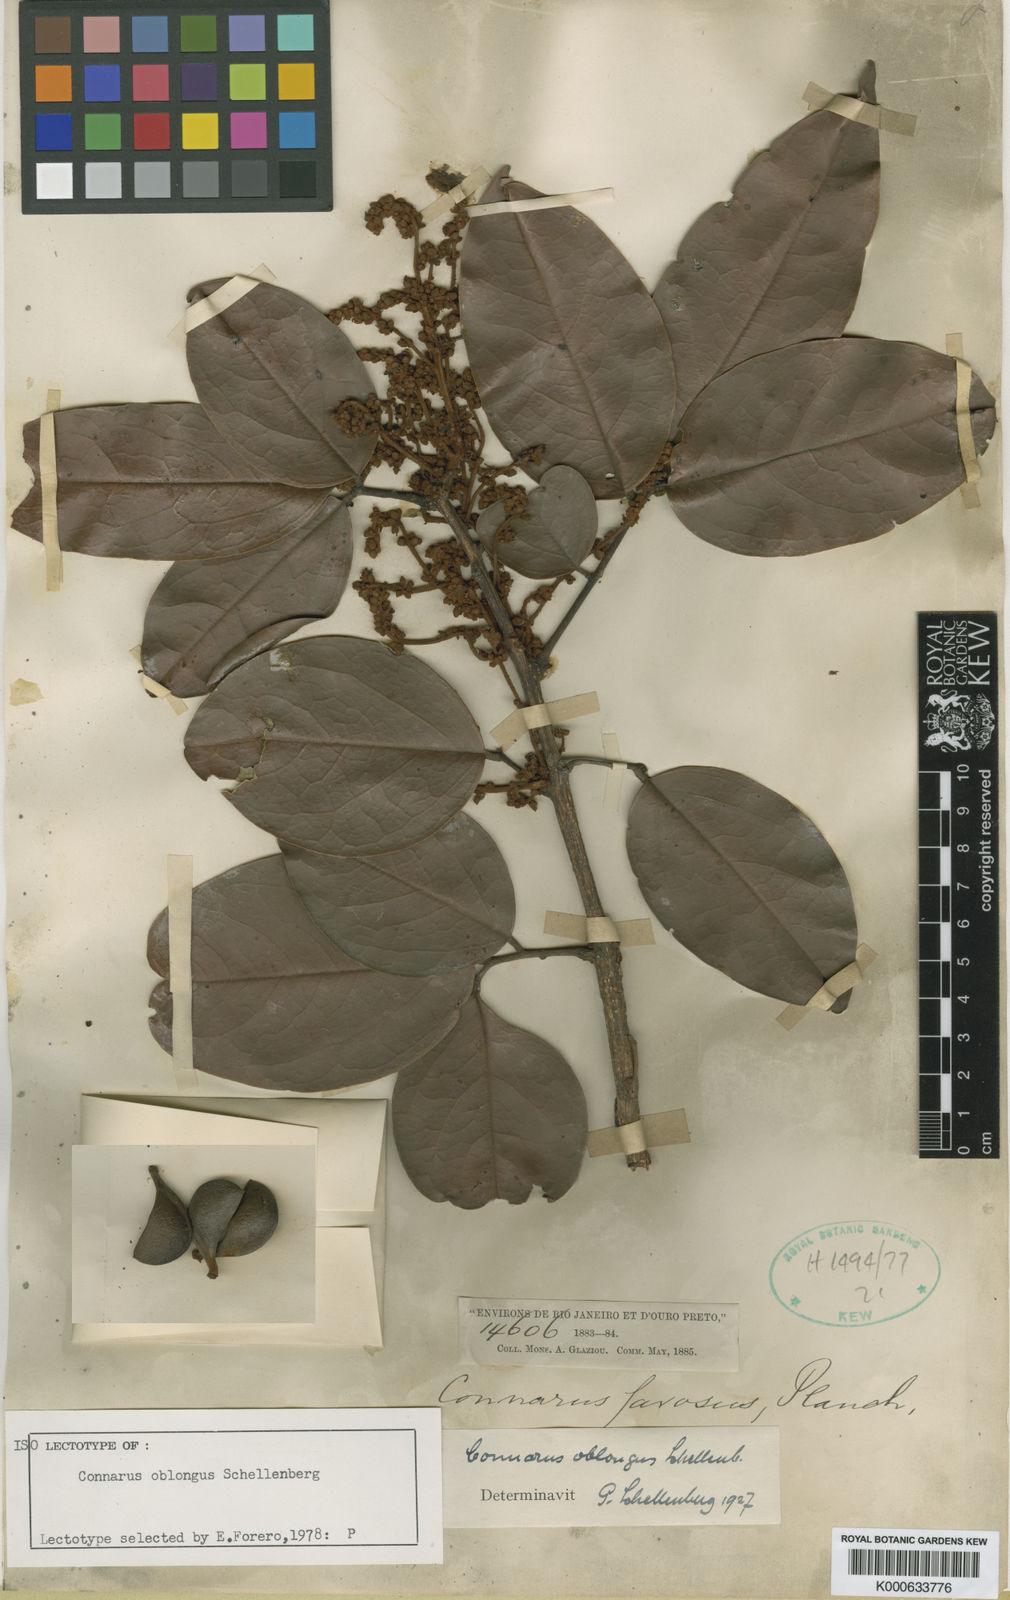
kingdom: Plantae
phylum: Tracheophyta
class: Magnoliopsida
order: Oxalidales
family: Connaraceae
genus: Connarus
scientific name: Connarus oblongus
